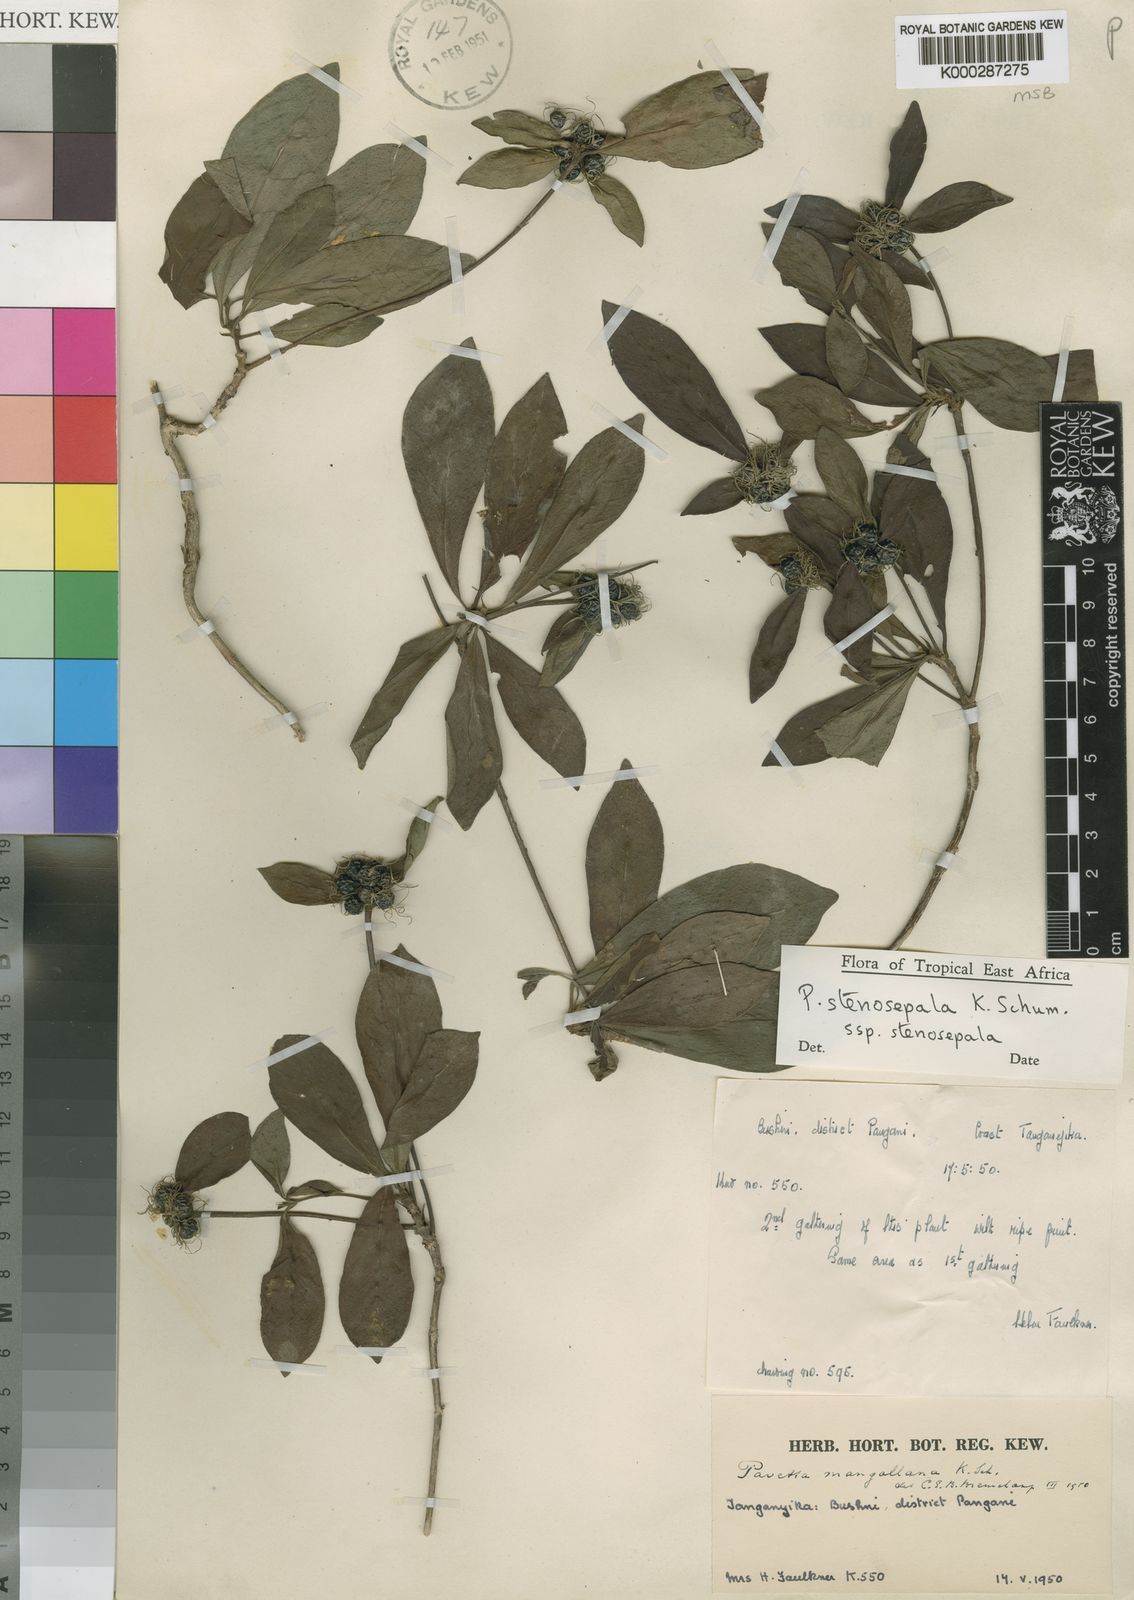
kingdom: Plantae
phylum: Tracheophyta
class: Magnoliopsida
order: Gentianales
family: Rubiaceae
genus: Pavetta
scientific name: Pavetta stenosepala
